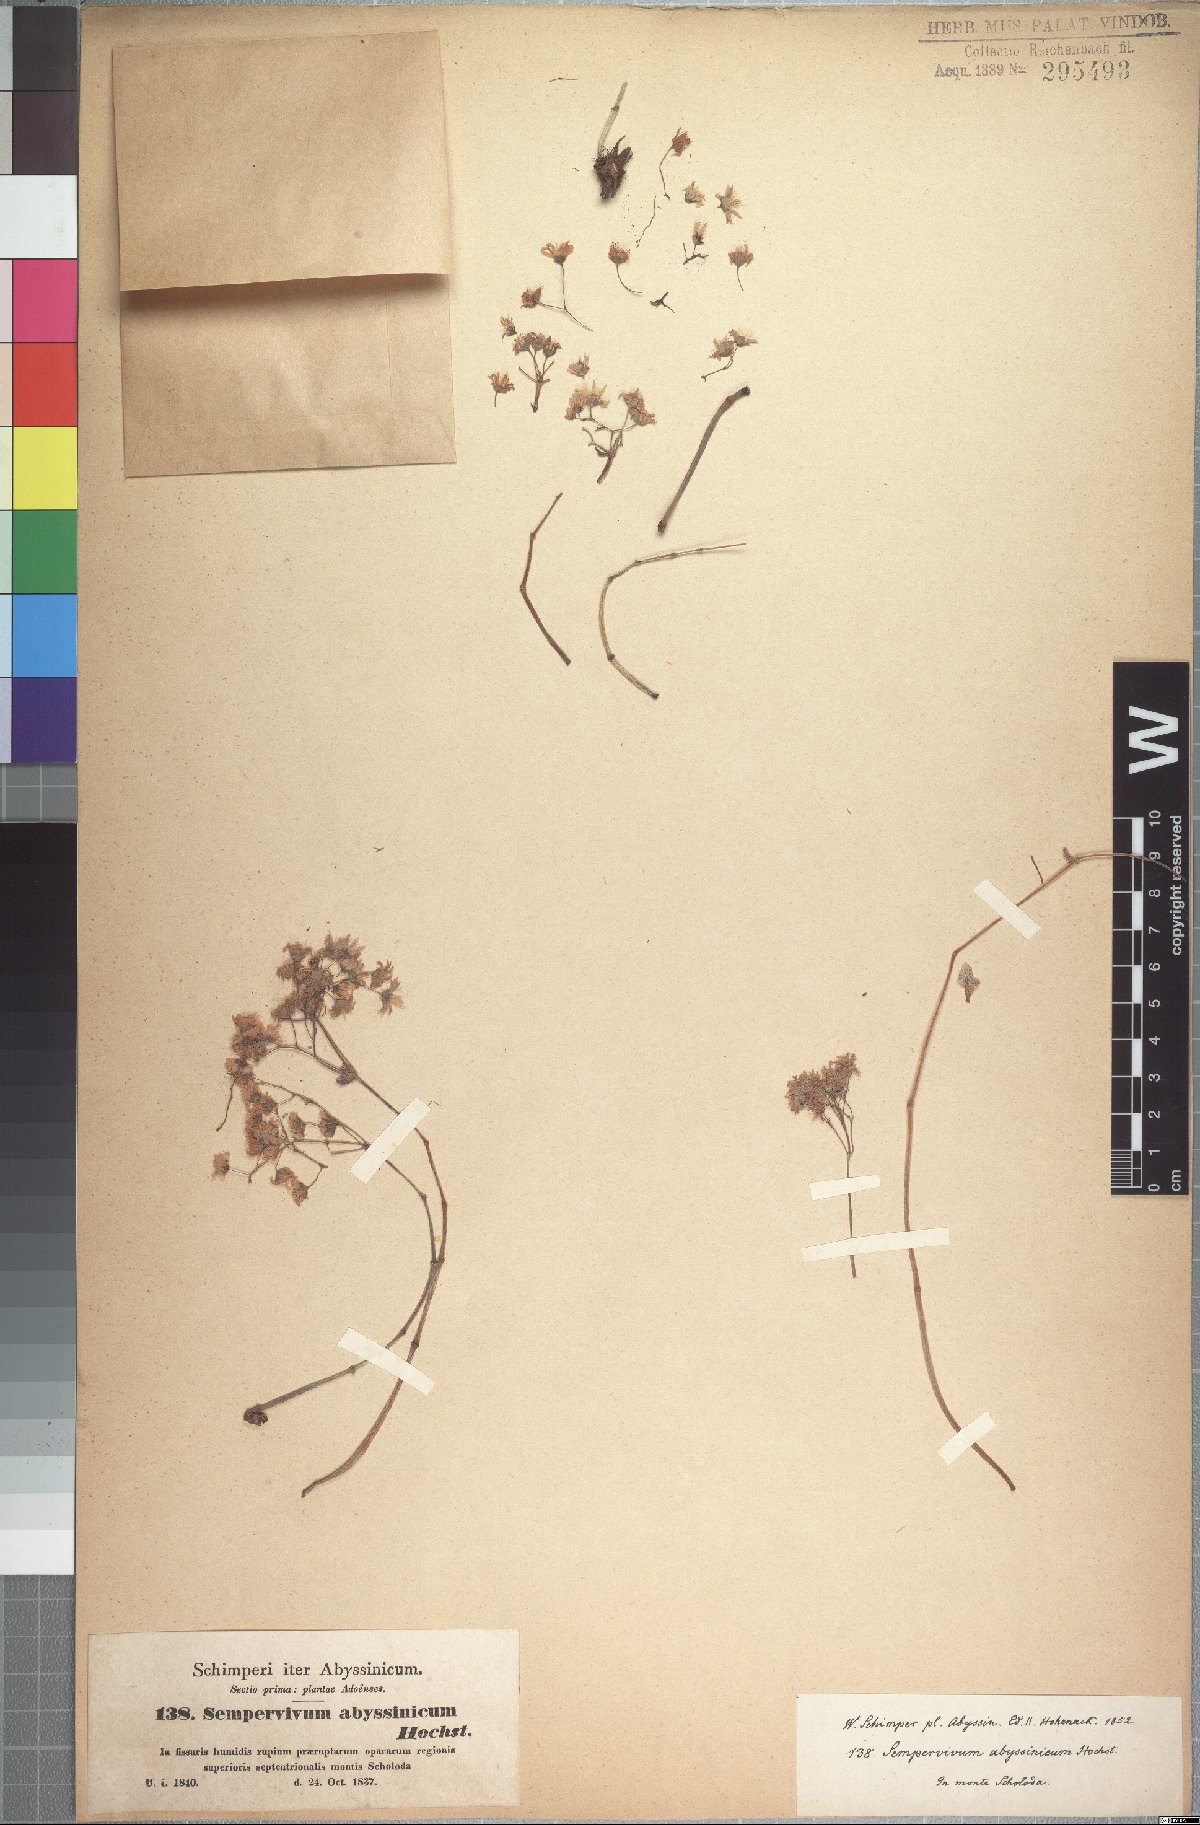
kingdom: Plantae
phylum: Tracheophyta
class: Magnoliopsida
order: Saxifragales
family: Crassulaceae
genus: Hypagophytum
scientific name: Hypagophytum abyssinicum
